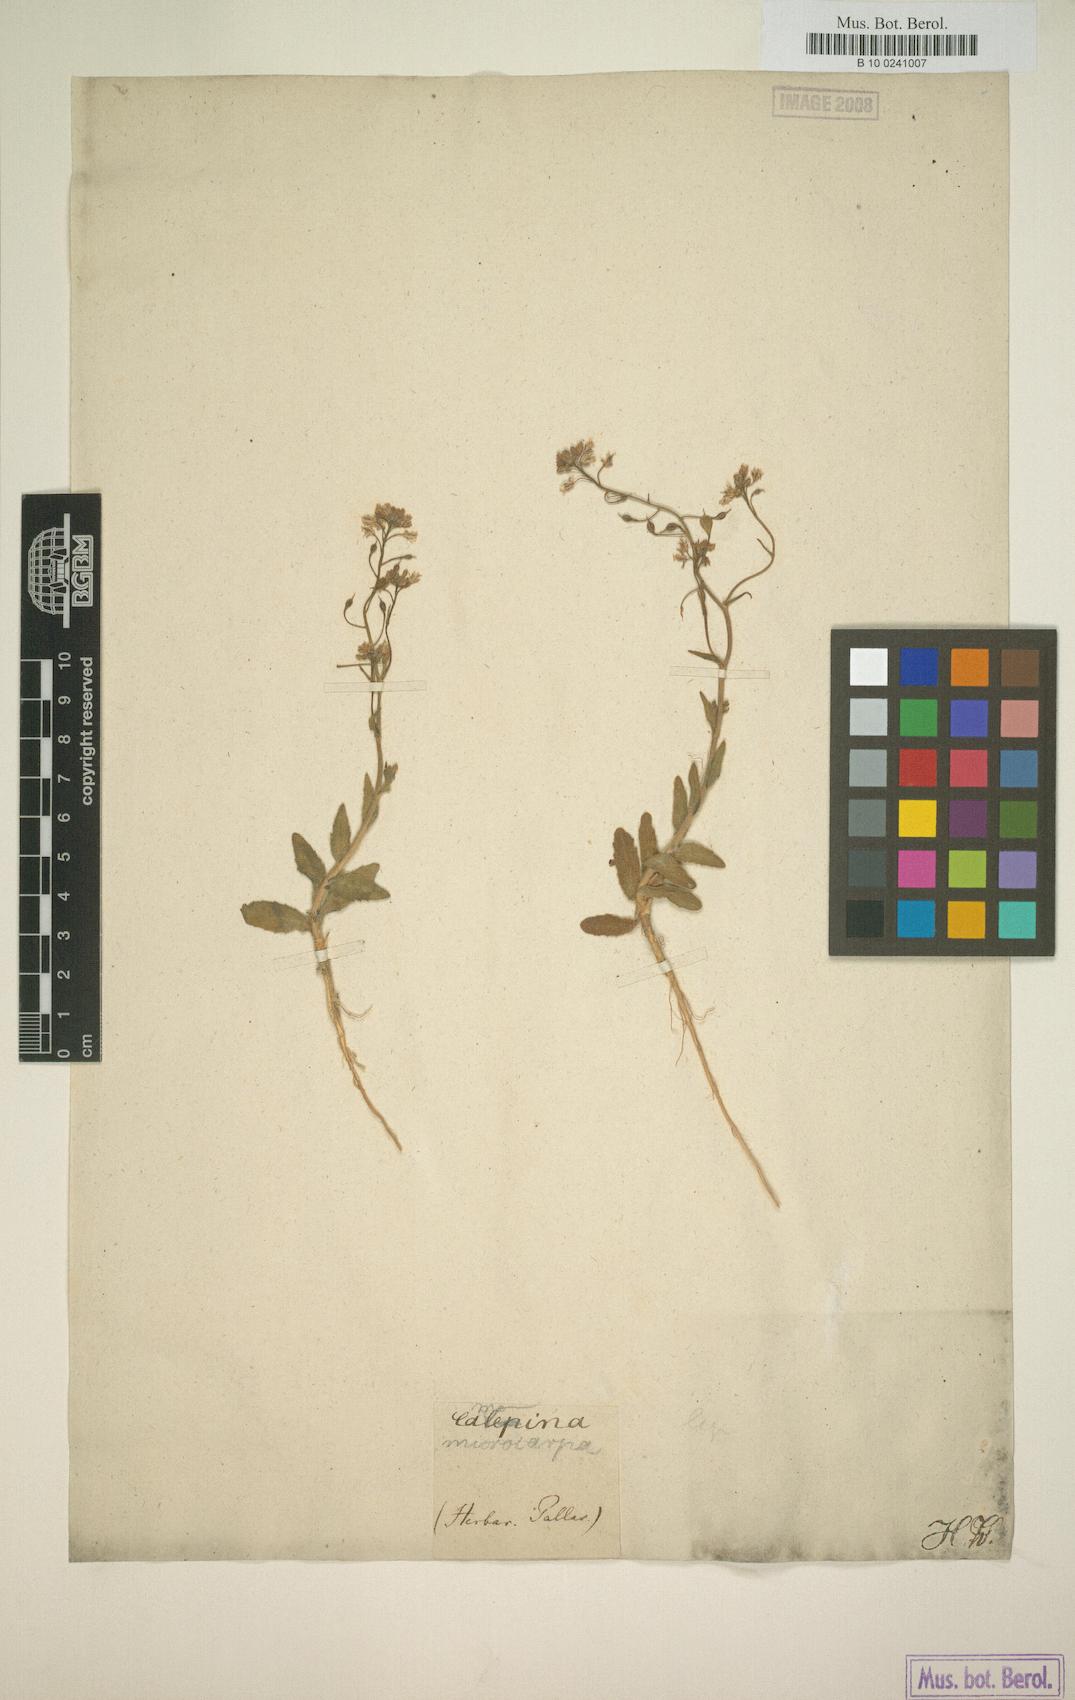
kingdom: Plantae
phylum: Tracheophyta
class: Magnoliopsida
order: Brassicales
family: Brassicaceae
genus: Camelina
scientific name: Camelina microcarpa
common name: Lesser gold-of-pleasure
